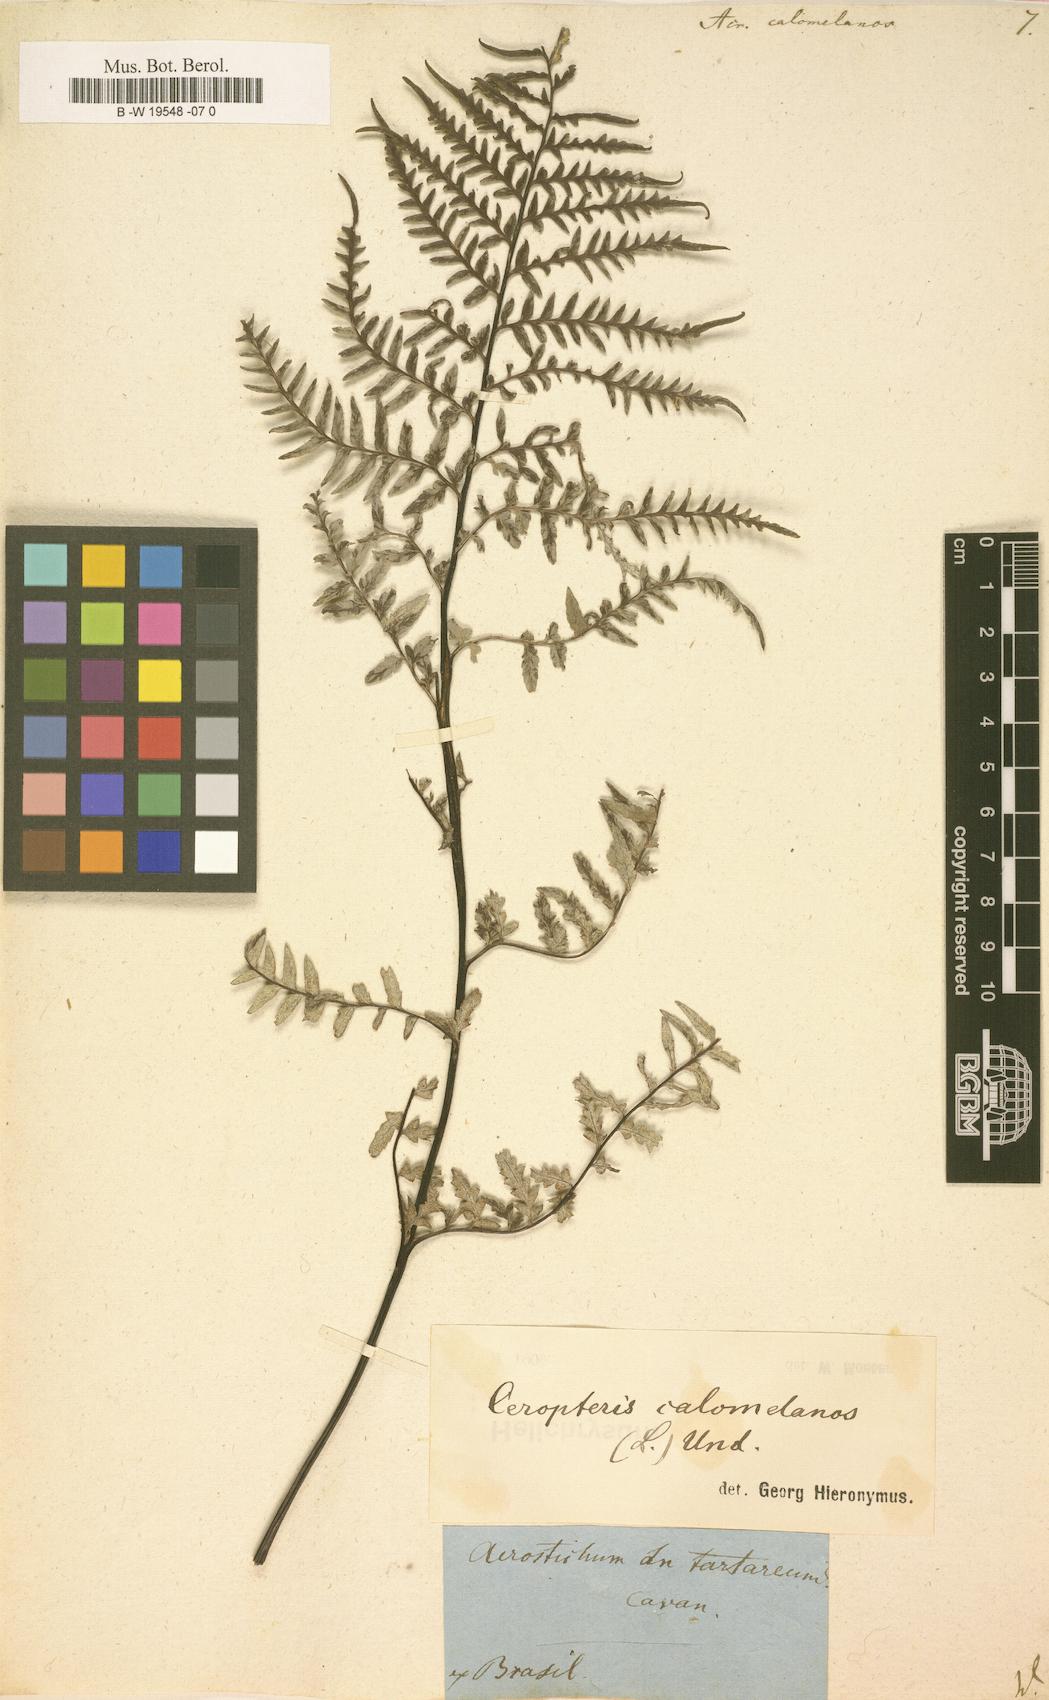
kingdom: Plantae
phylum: Tracheophyta
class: Polypodiopsida
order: Polypodiales
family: Pteridaceae
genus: Pityrogramma
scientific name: Pityrogramma calomelanos
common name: Dixie silverback fern
